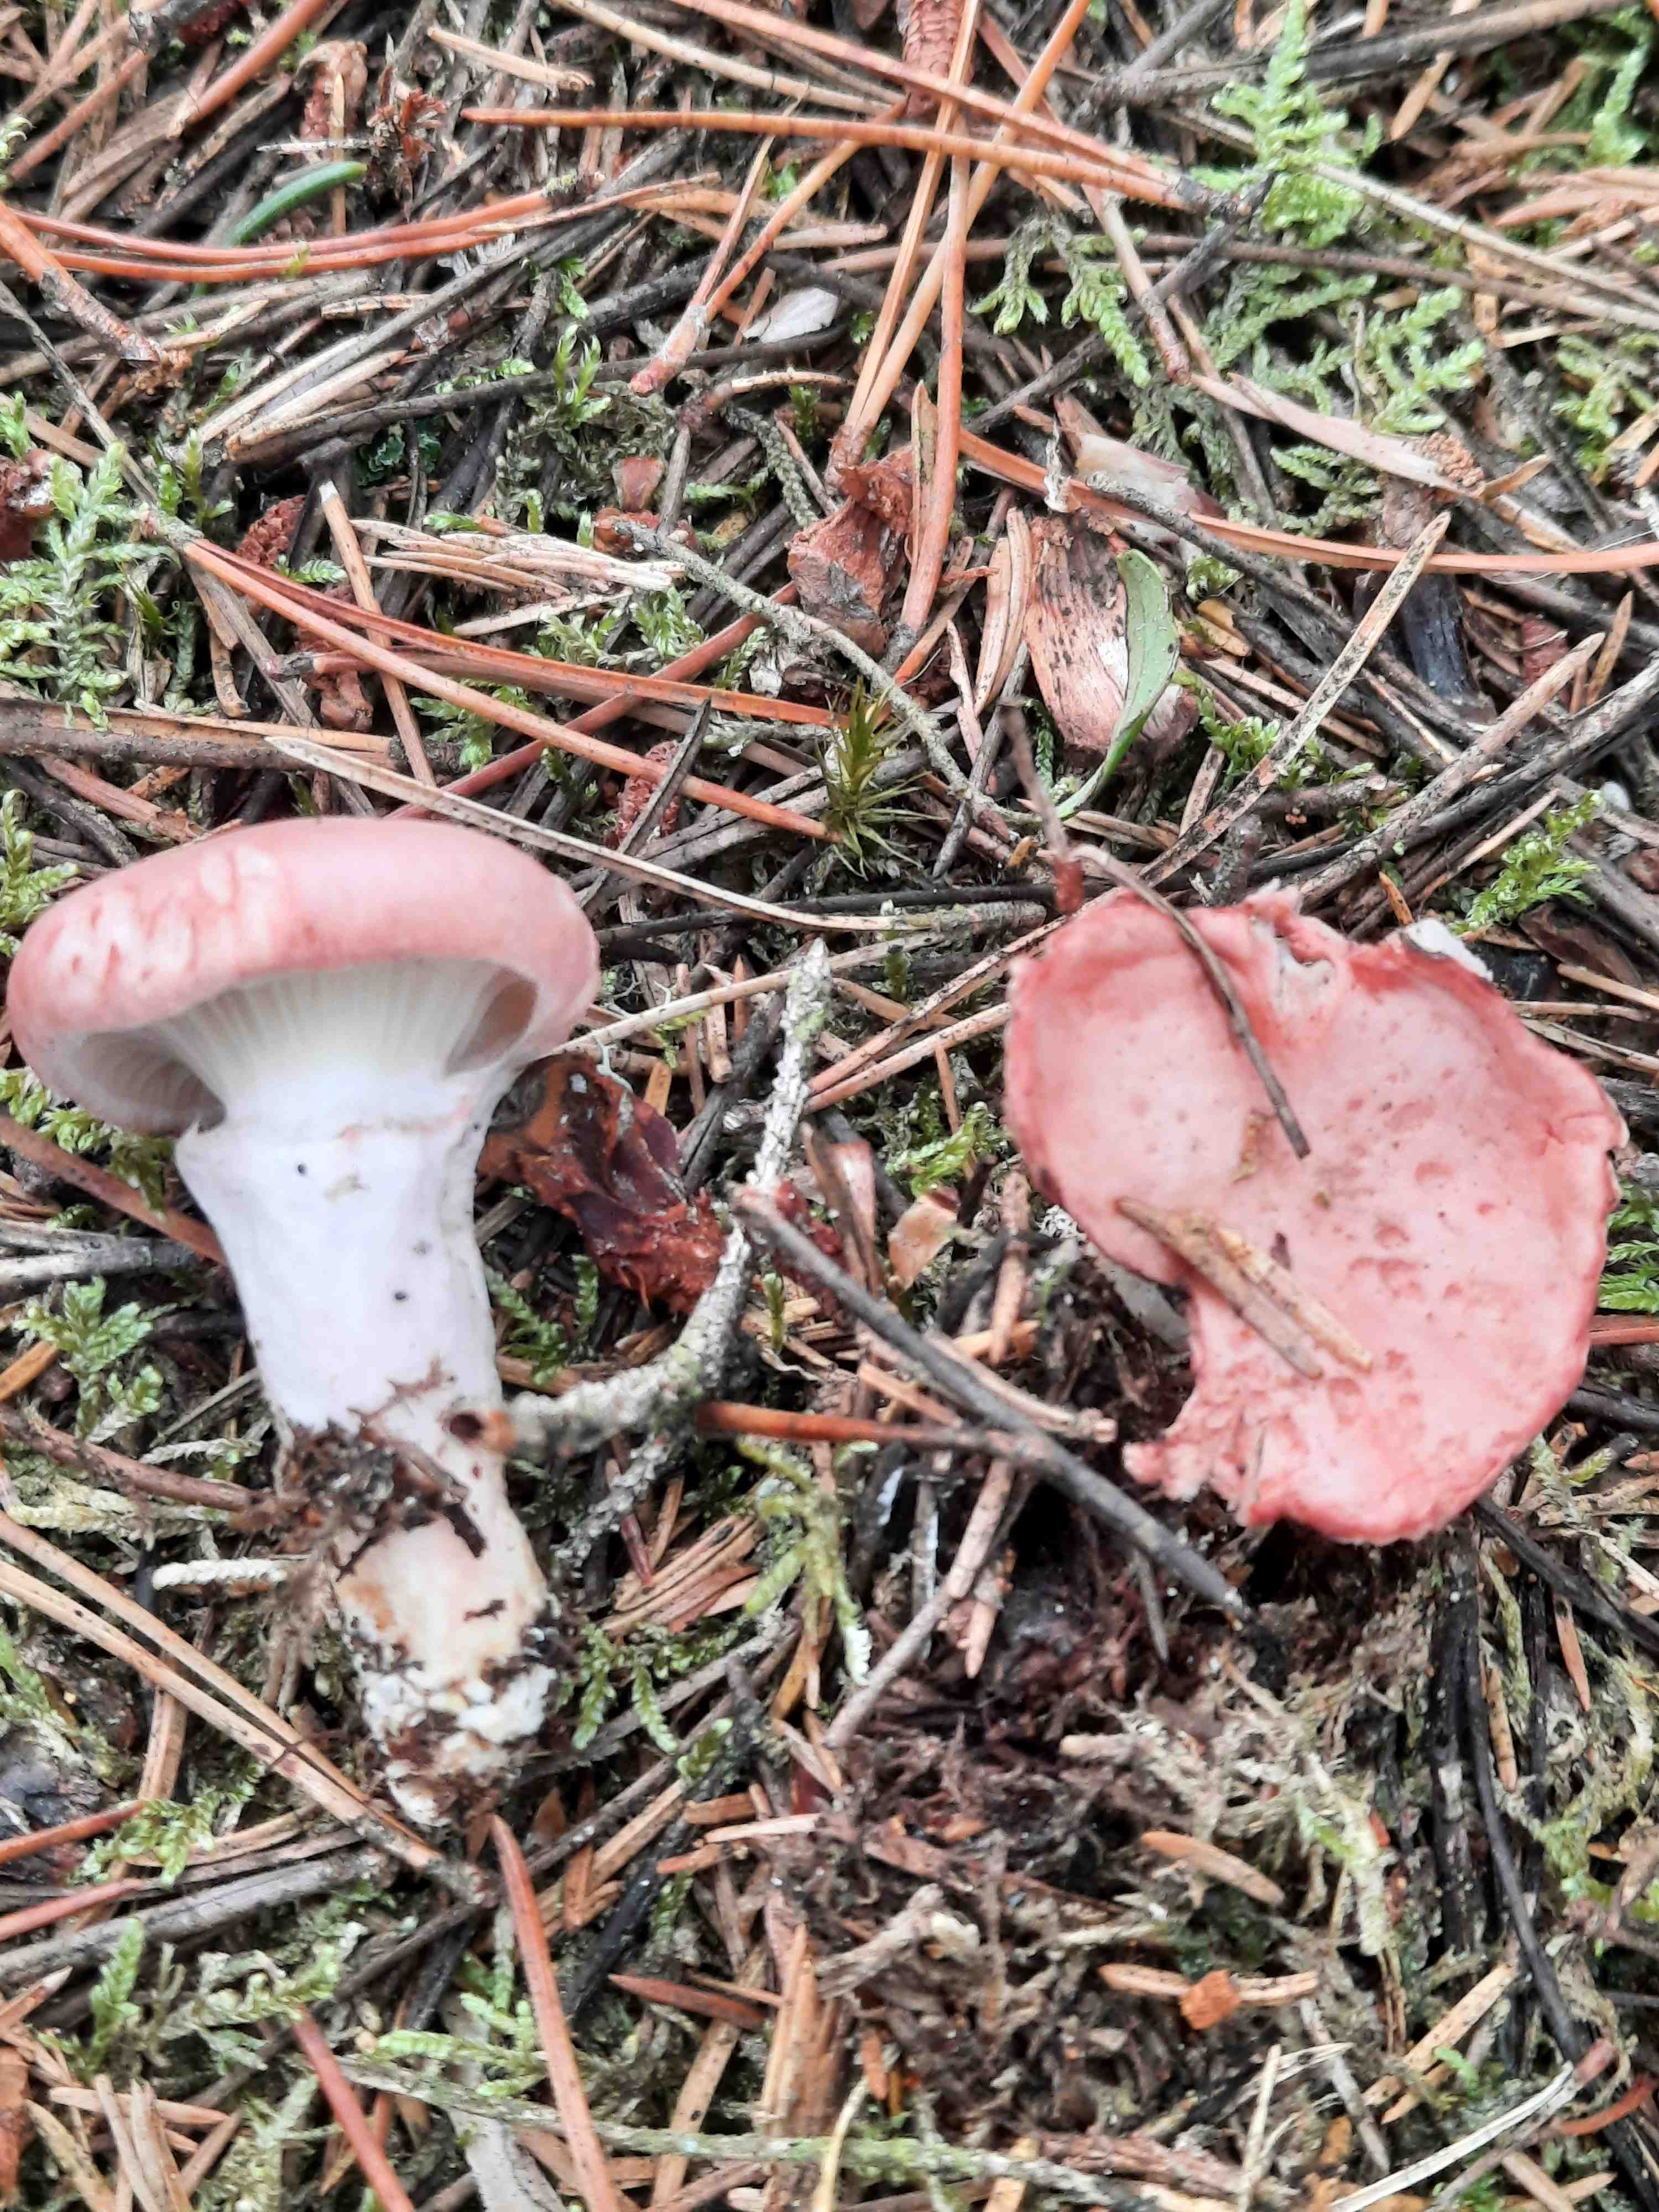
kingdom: Fungi
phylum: Basidiomycota
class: Agaricomycetes
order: Boletales
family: Gomphidiaceae
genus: Gomphidius
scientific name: Gomphidius roseus
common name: rosenrød slimslør
